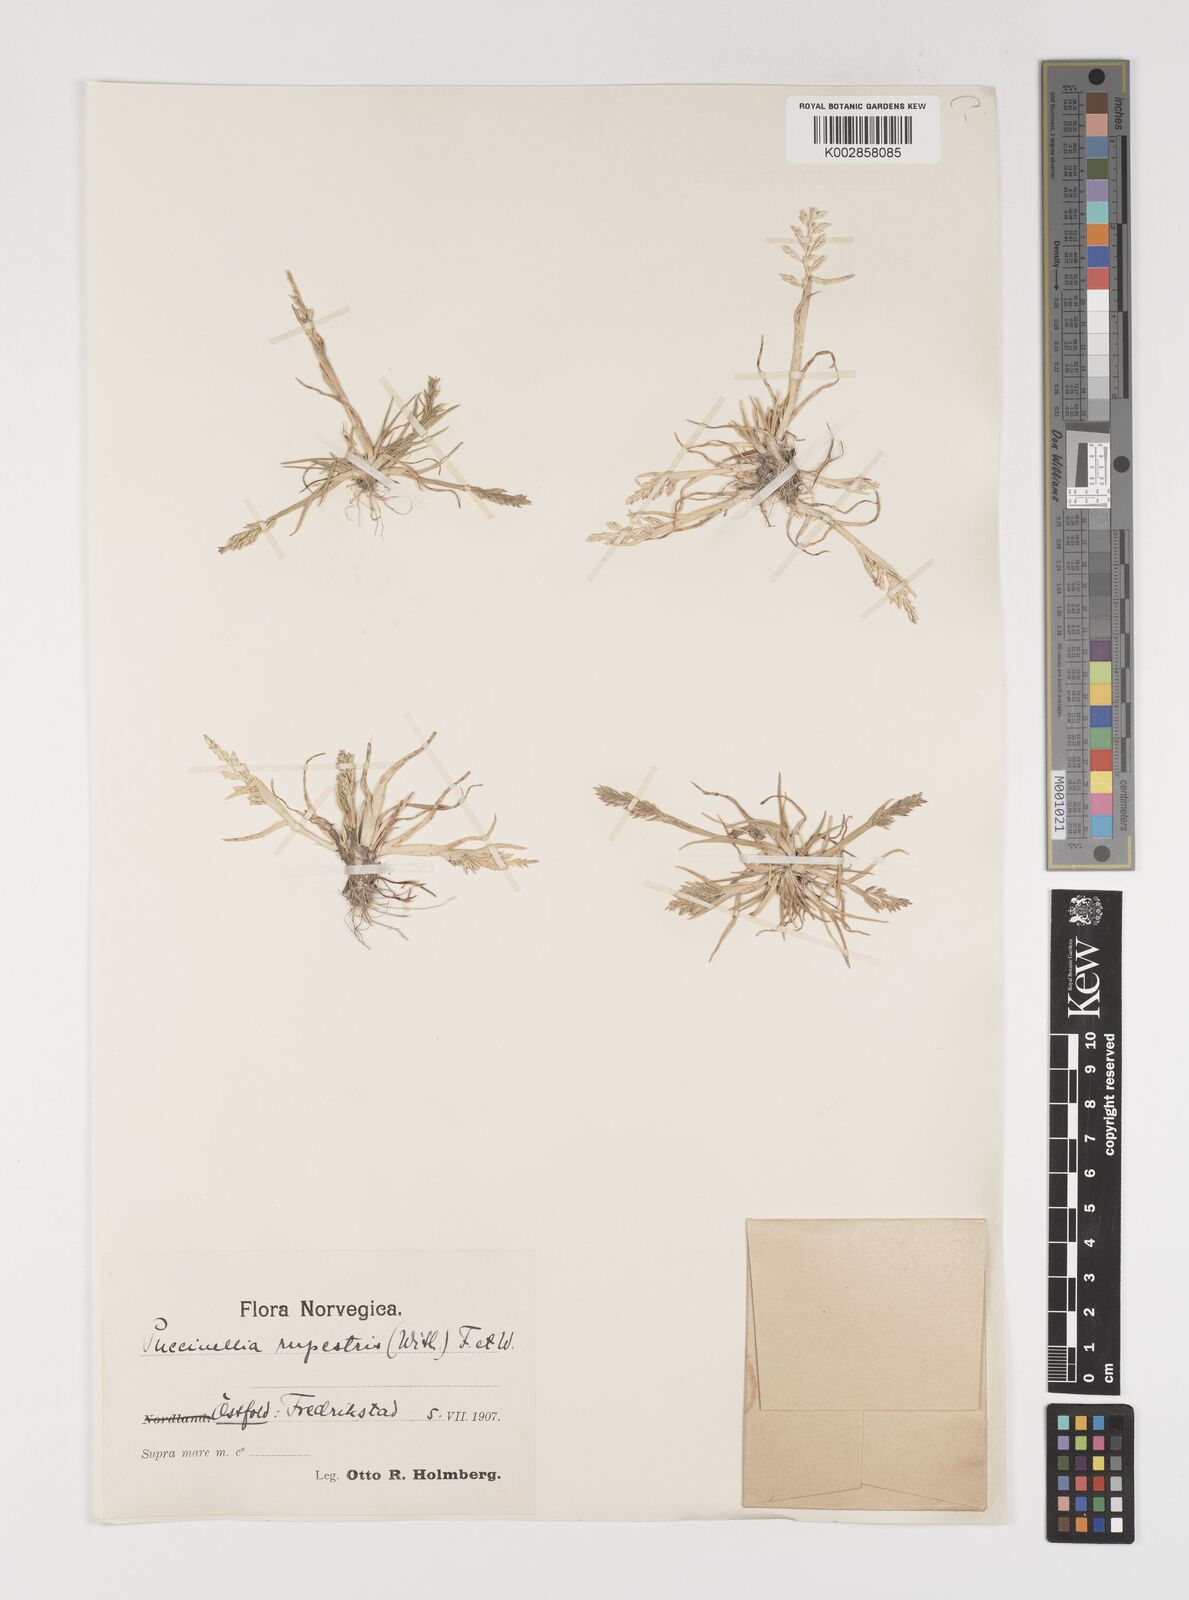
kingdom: Plantae
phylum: Tracheophyta
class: Liliopsida
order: Poales
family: Poaceae
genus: Puccinellia
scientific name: Puccinellia rupestris
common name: Stiff saltmarsh-grass
